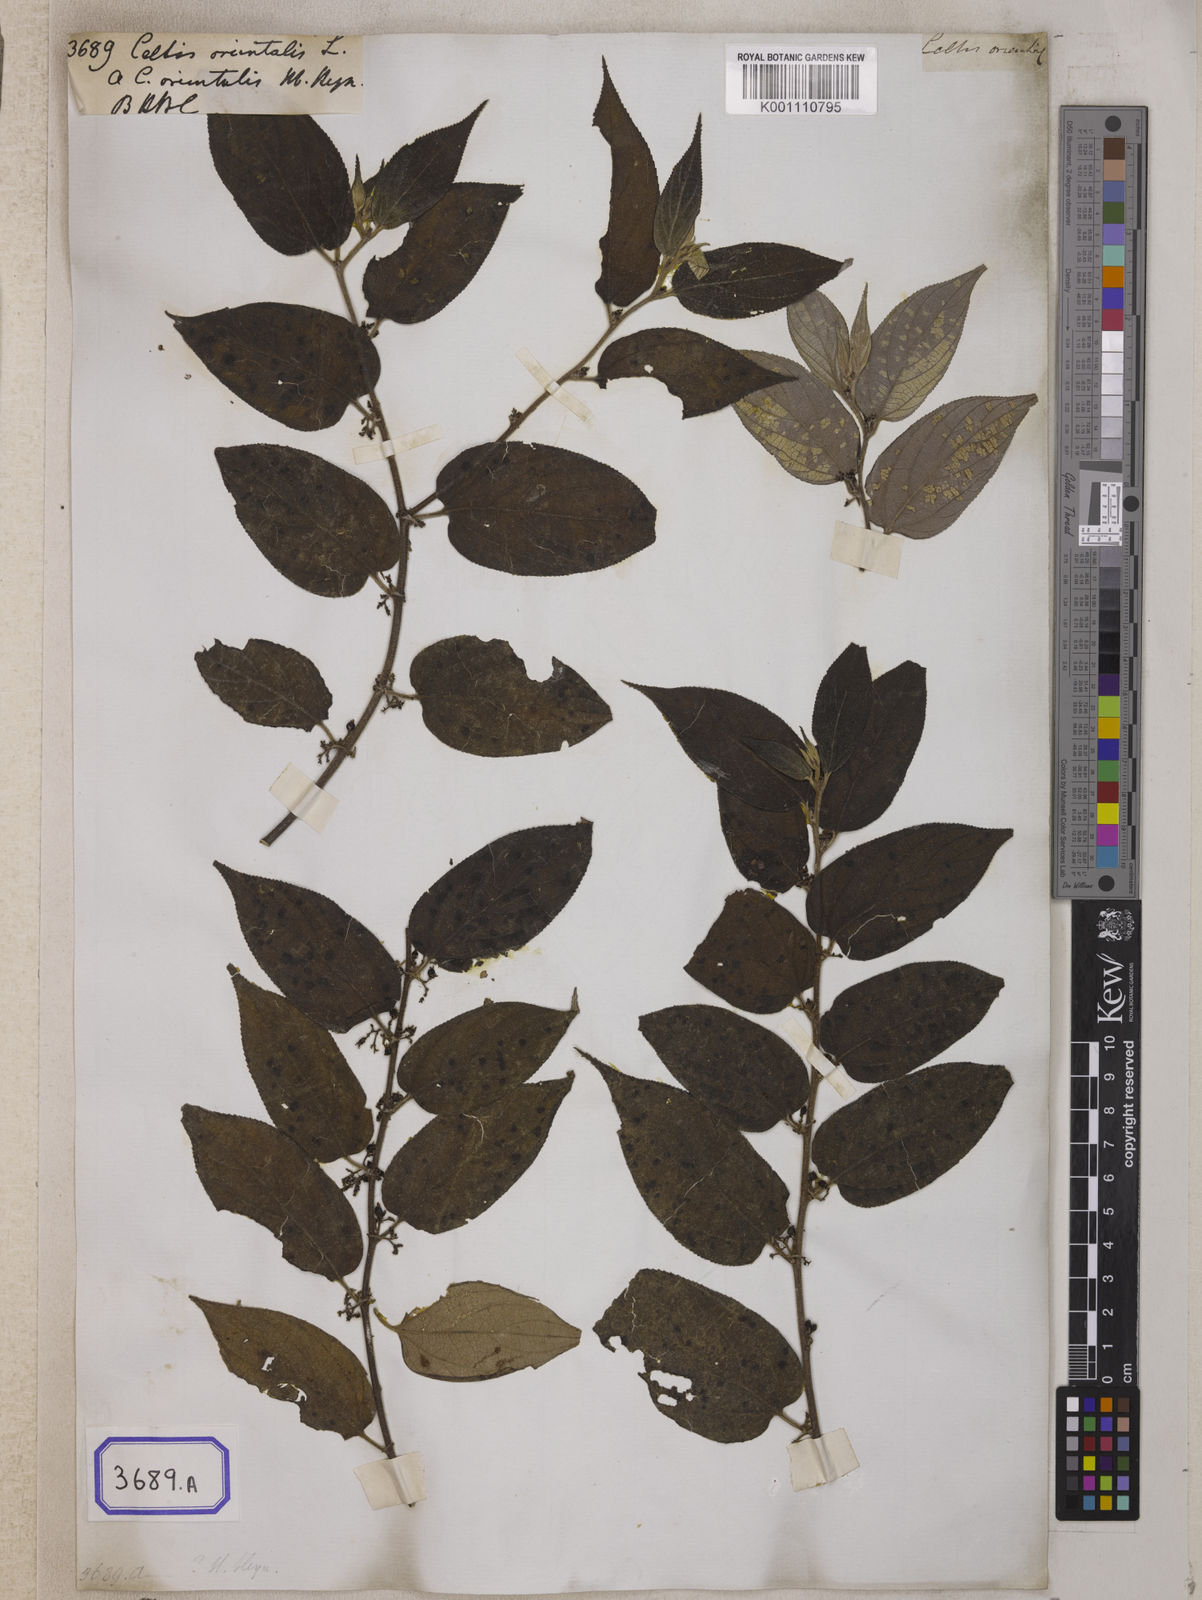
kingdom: Plantae
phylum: Tracheophyta
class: Magnoliopsida
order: Rosales
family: Cannabaceae
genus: Trema
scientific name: Trema orientale
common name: Indian charcoal tree
